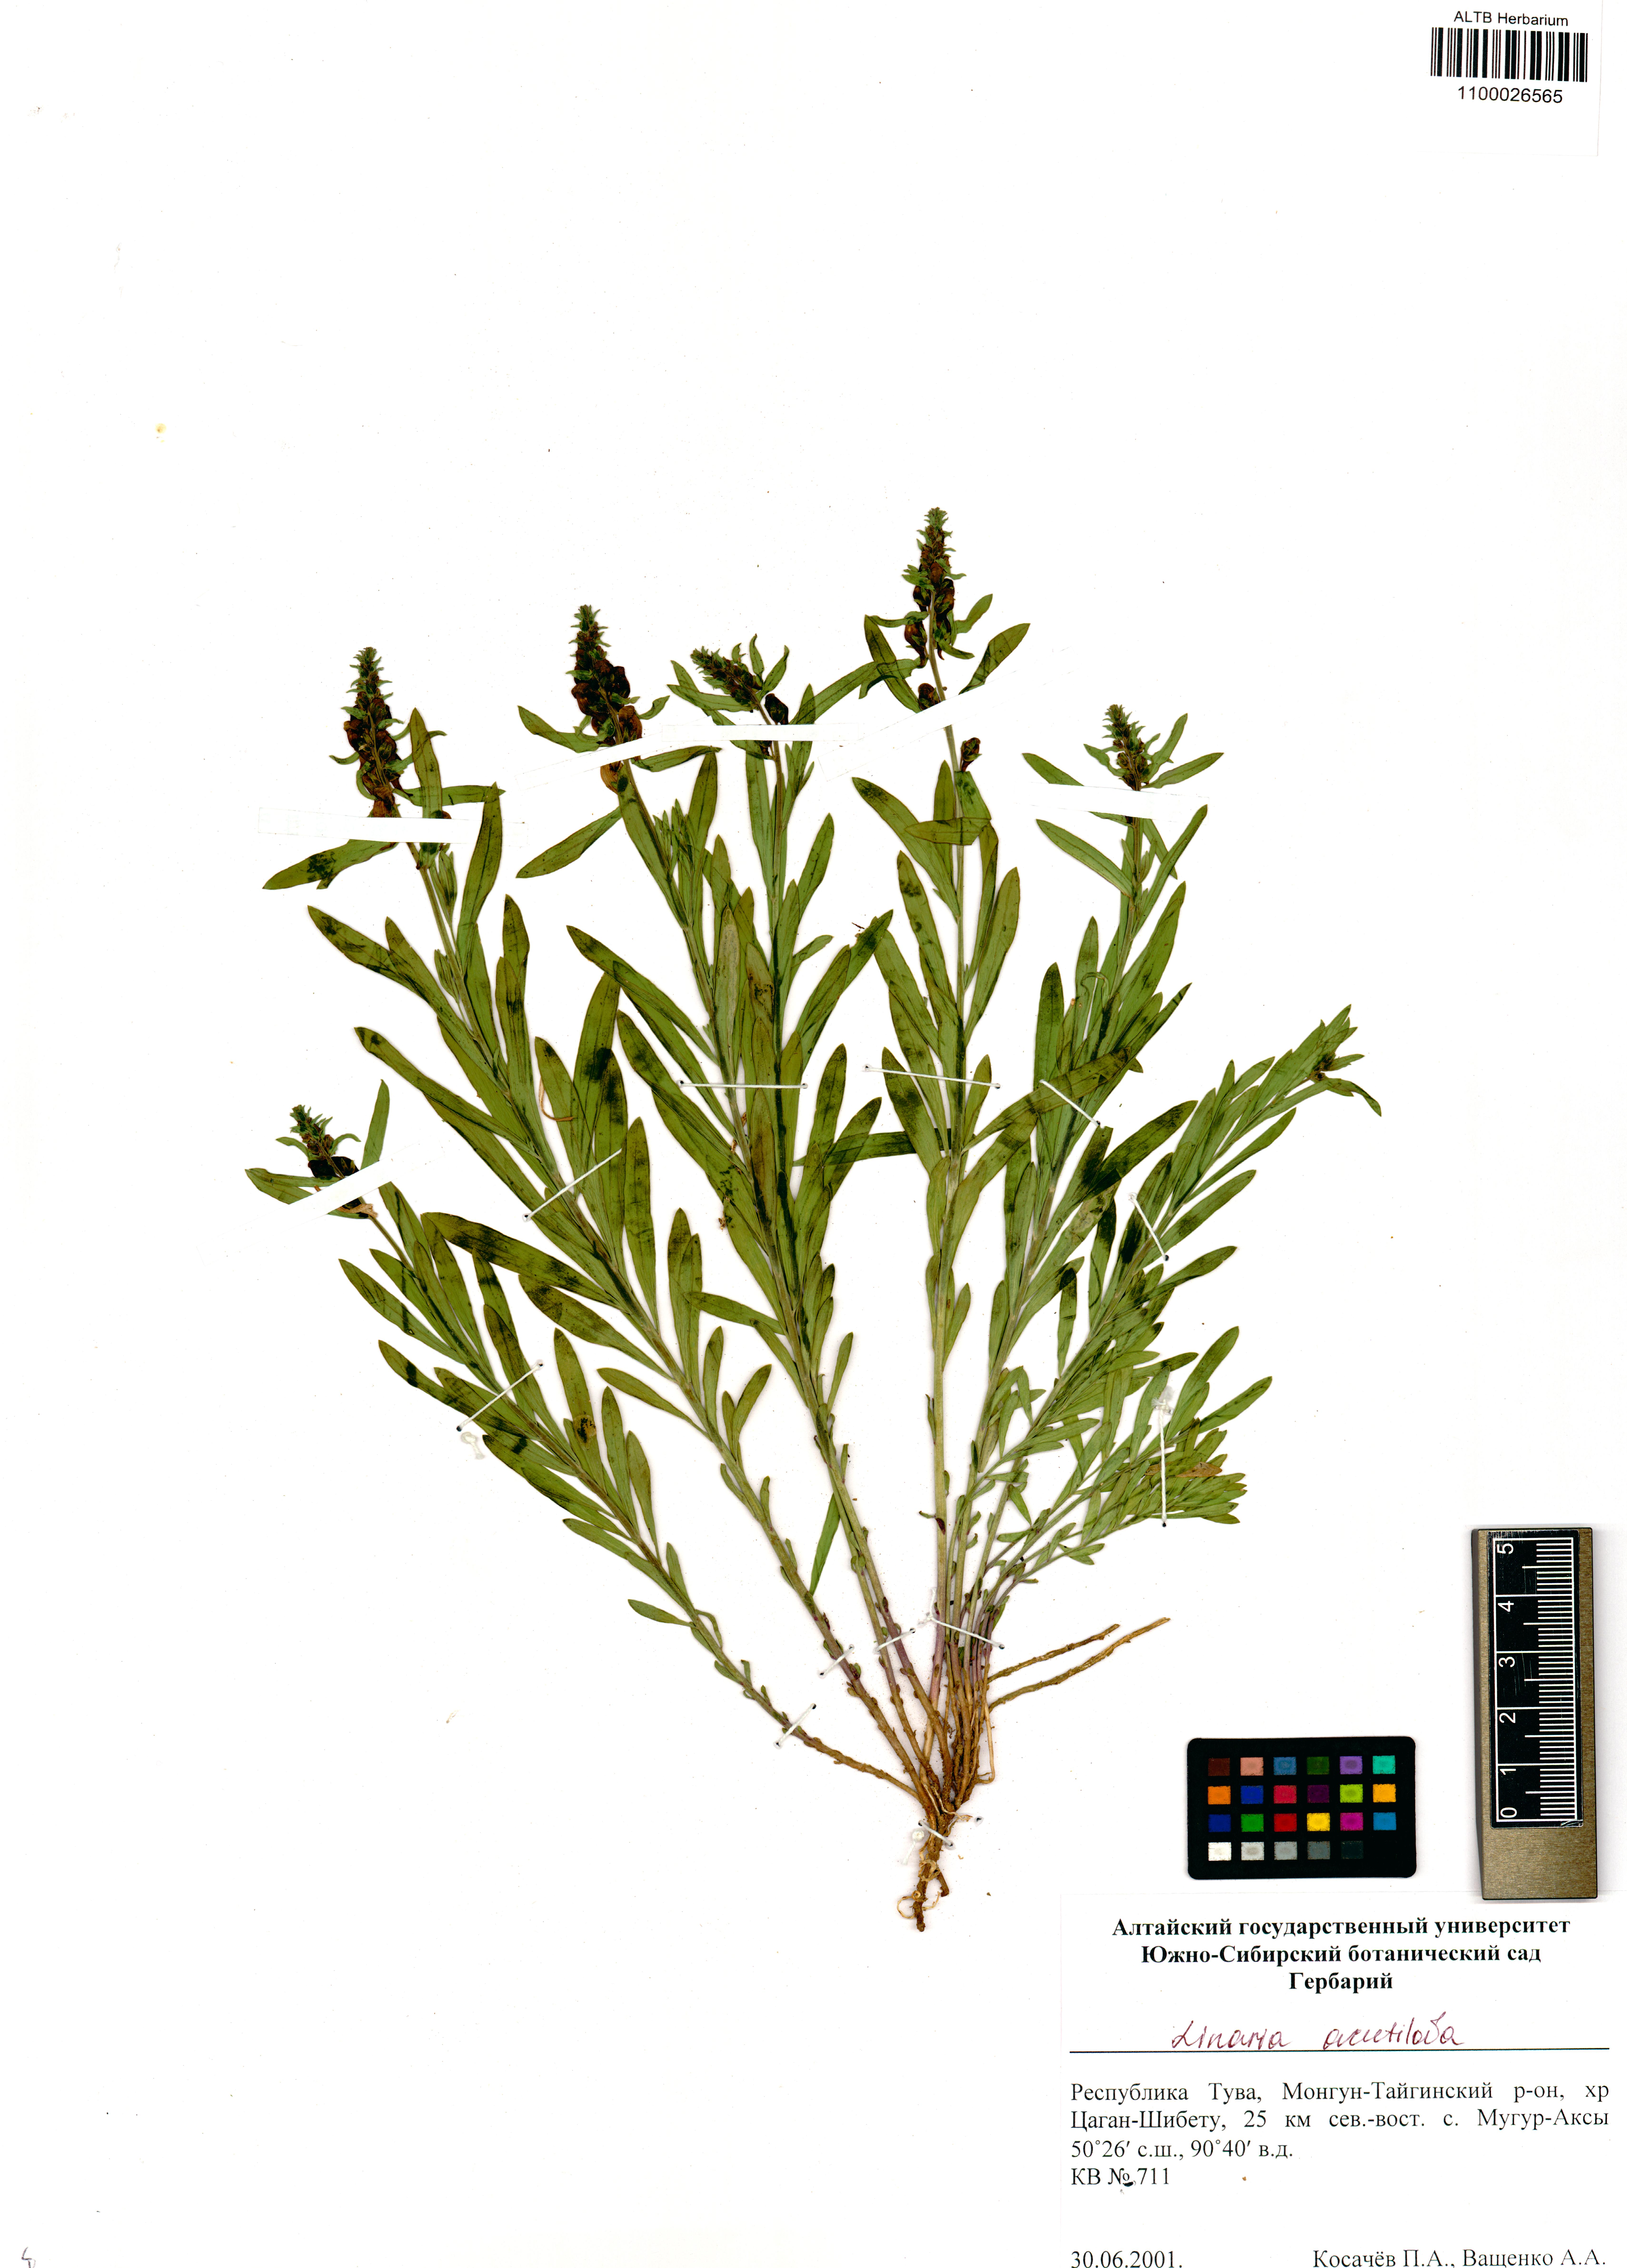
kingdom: Plantae
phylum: Tracheophyta
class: Magnoliopsida
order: Lamiales
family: Plantaginaceae
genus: Linaria
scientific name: Linaria acutiloba
